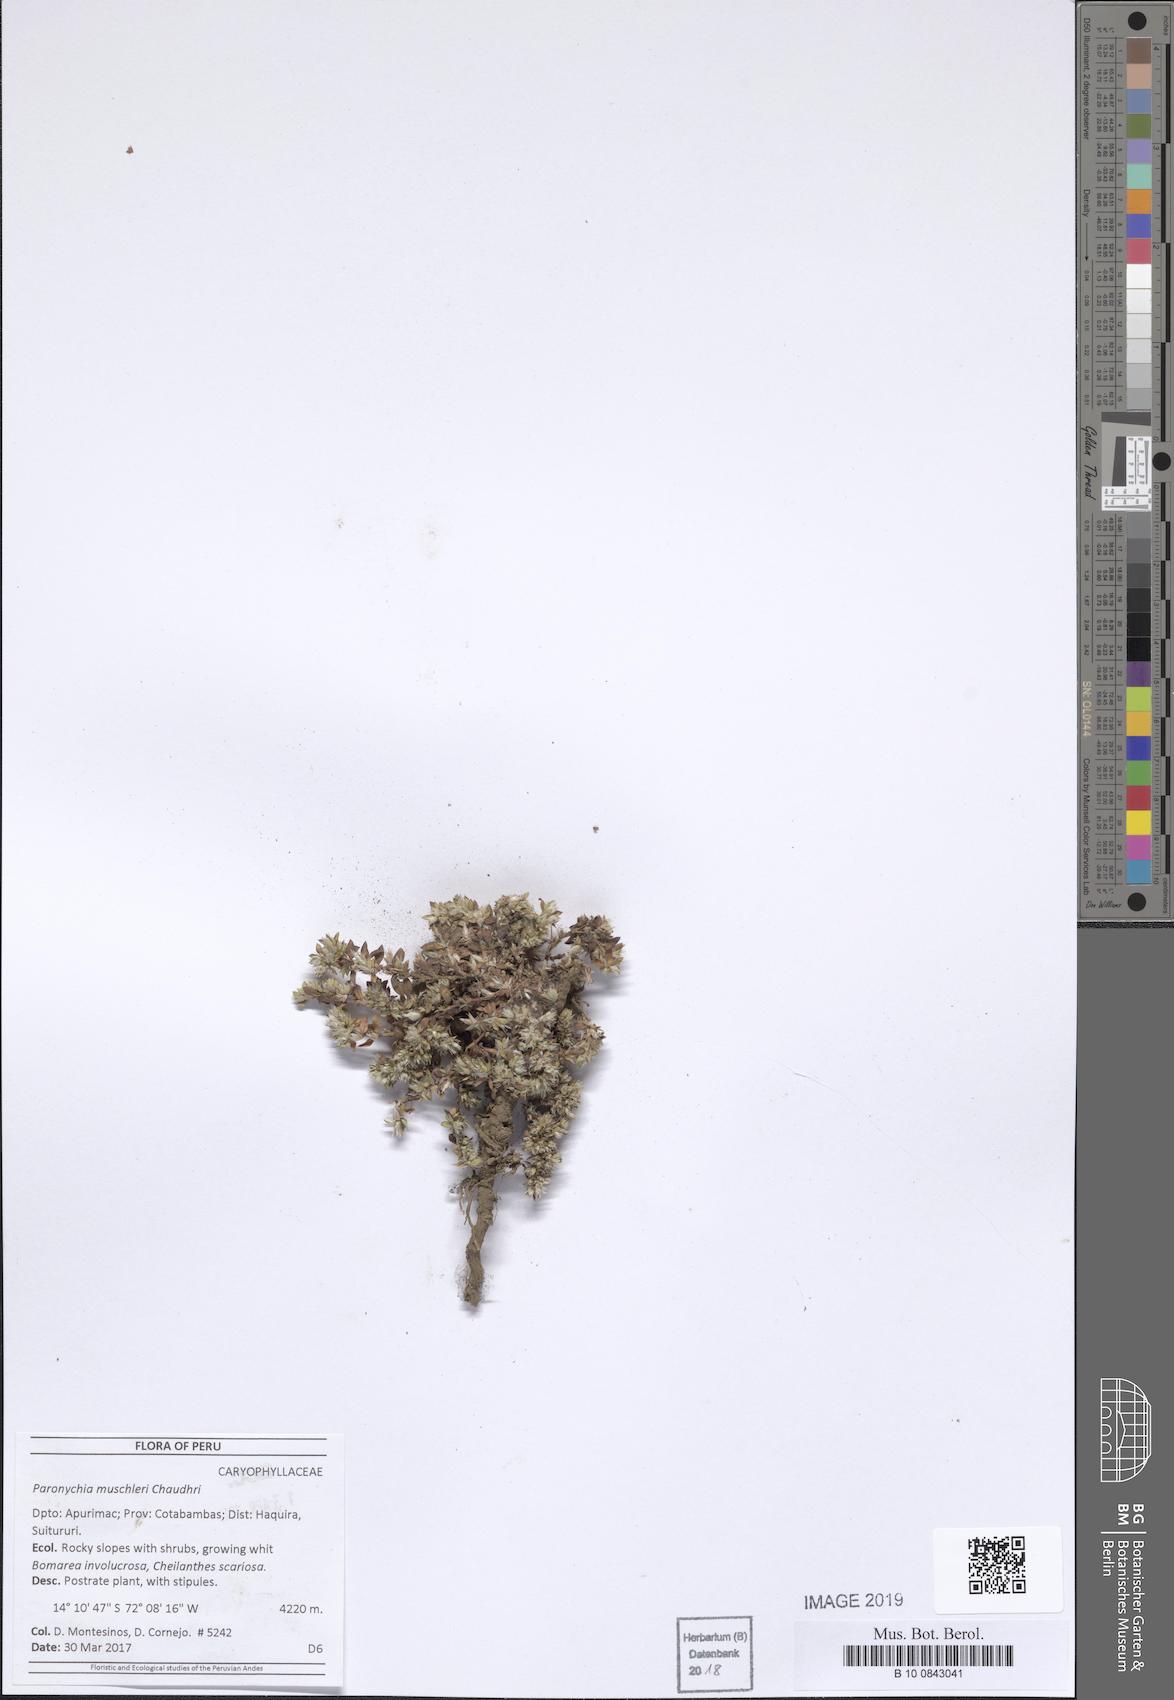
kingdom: Plantae
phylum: Tracheophyta
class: Magnoliopsida
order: Caryophyllales
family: Caryophyllaceae
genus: Paronychia
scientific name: Paronychia muschleri
